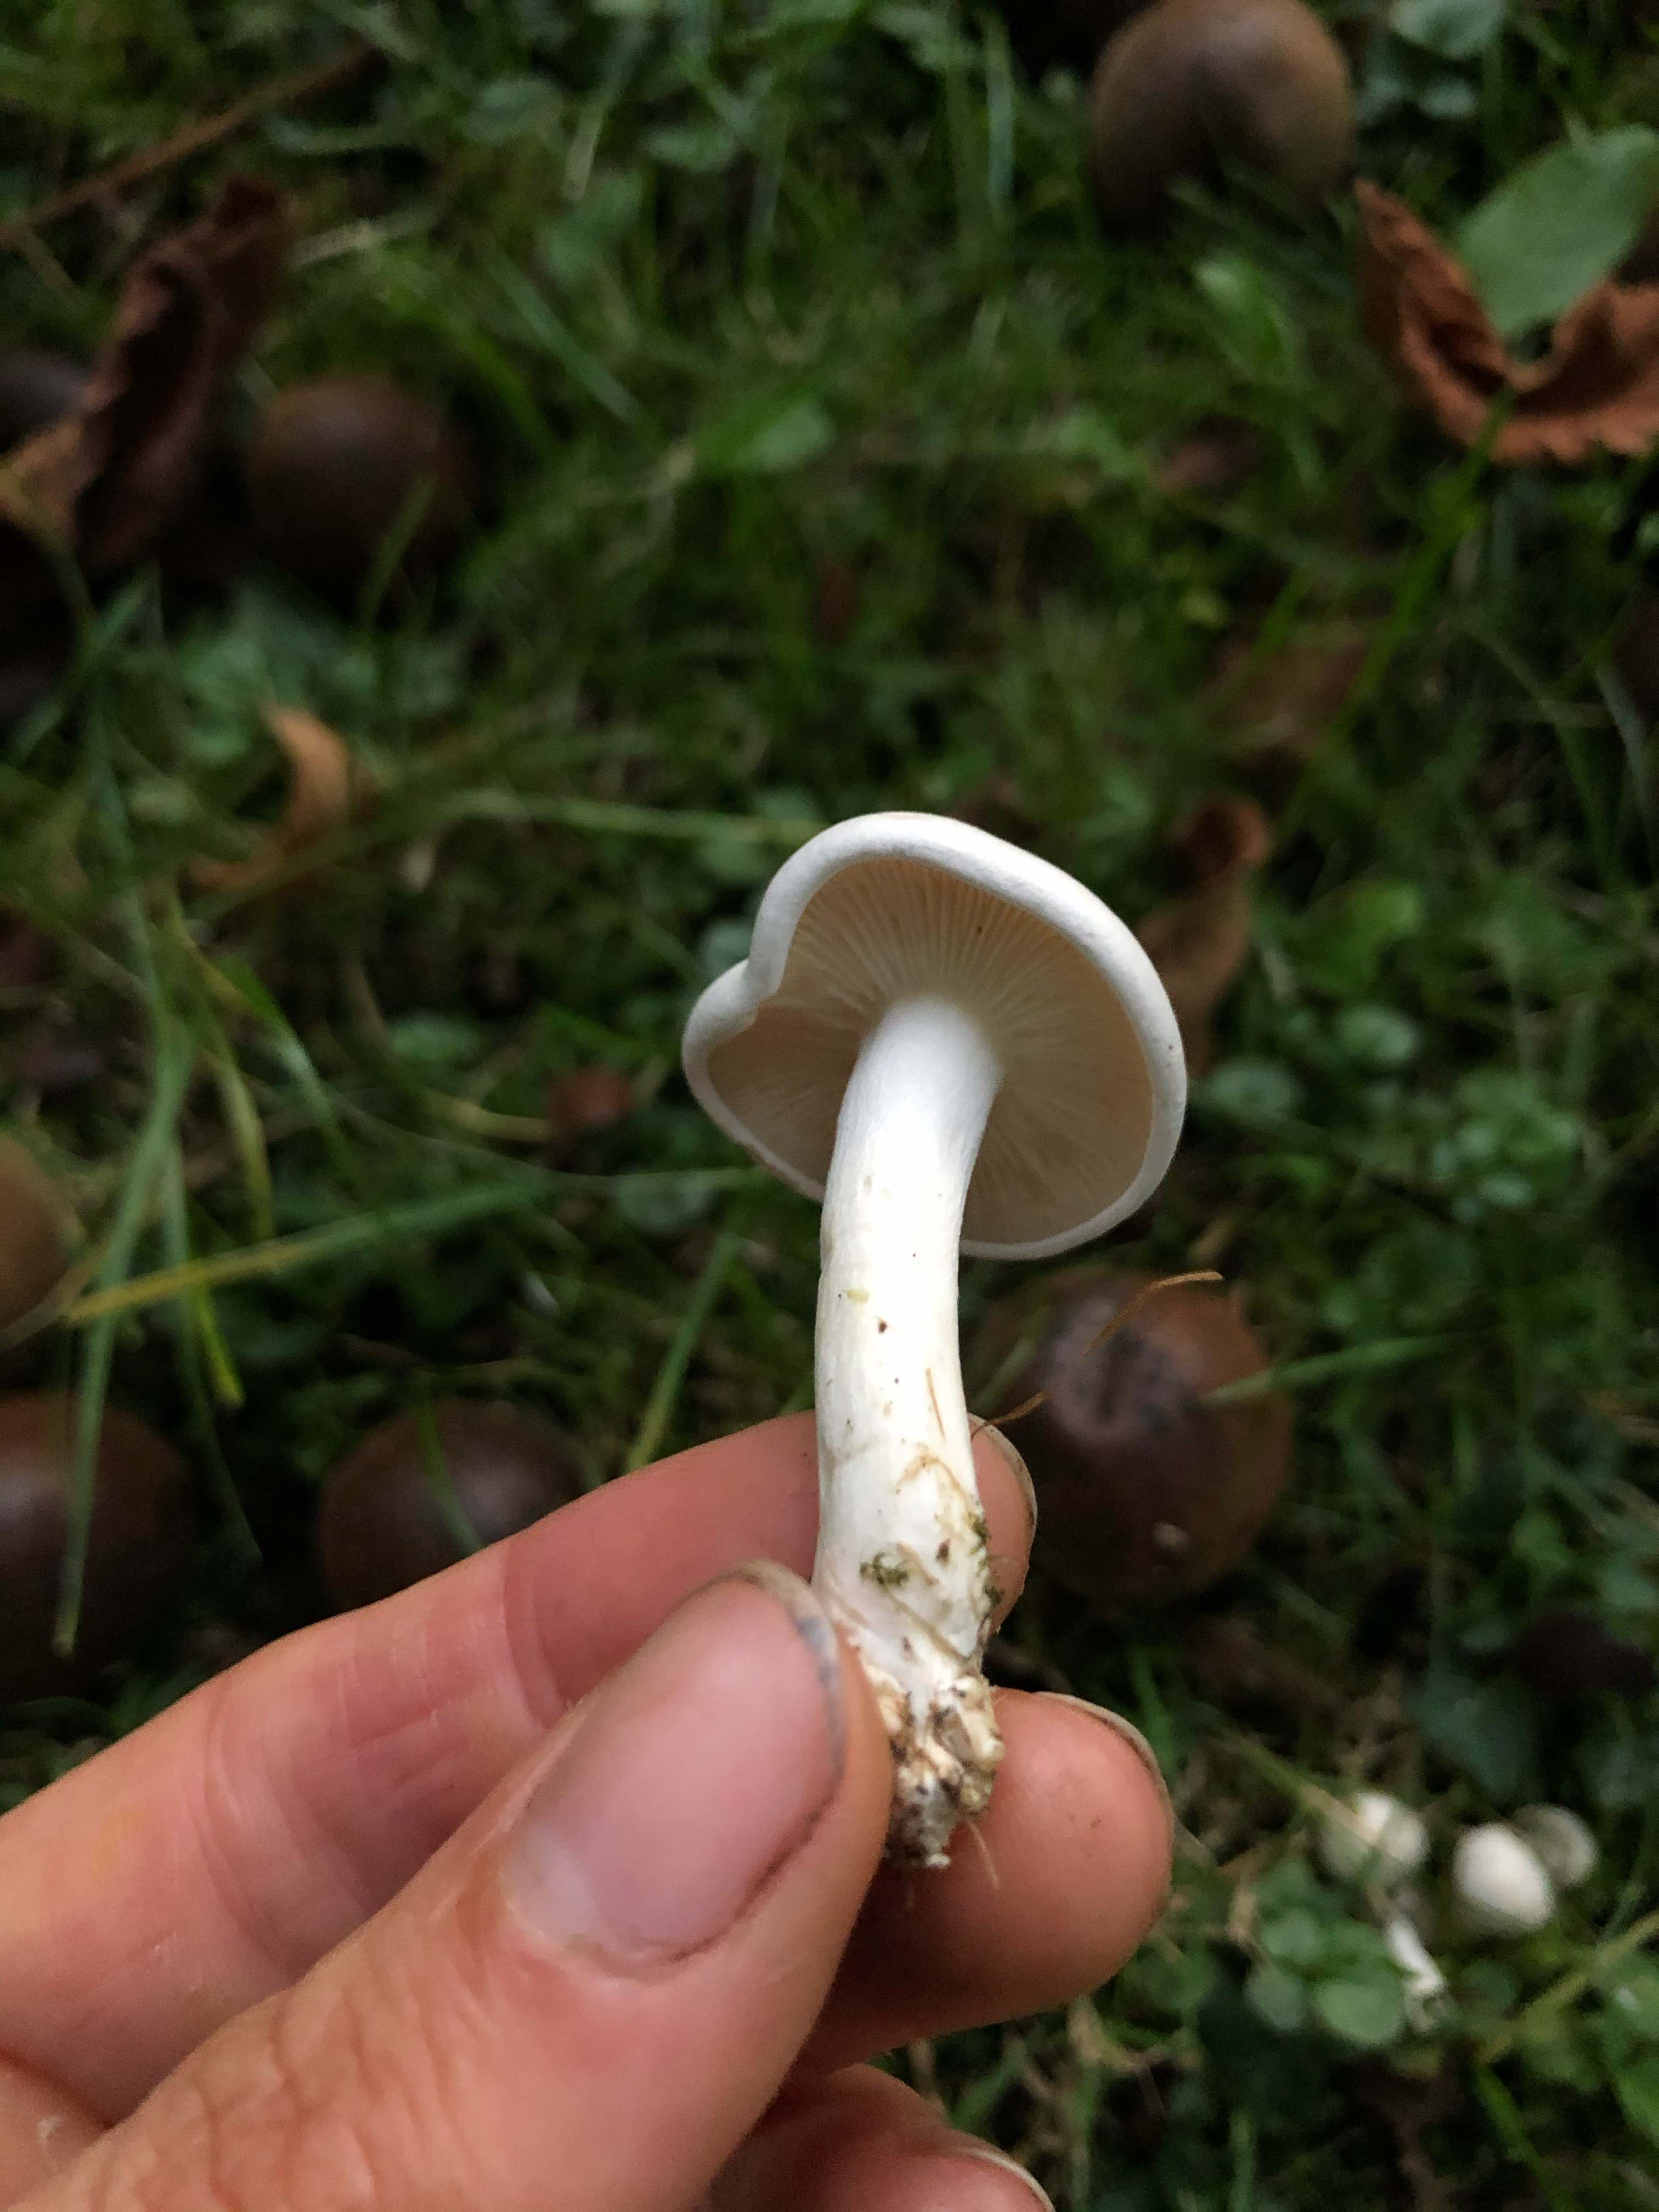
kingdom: Fungi
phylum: Basidiomycota
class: Agaricomycetes
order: Agaricales
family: Tricholomataceae
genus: Leucocybe
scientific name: Leucocybe connata
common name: knippe-tragthat
